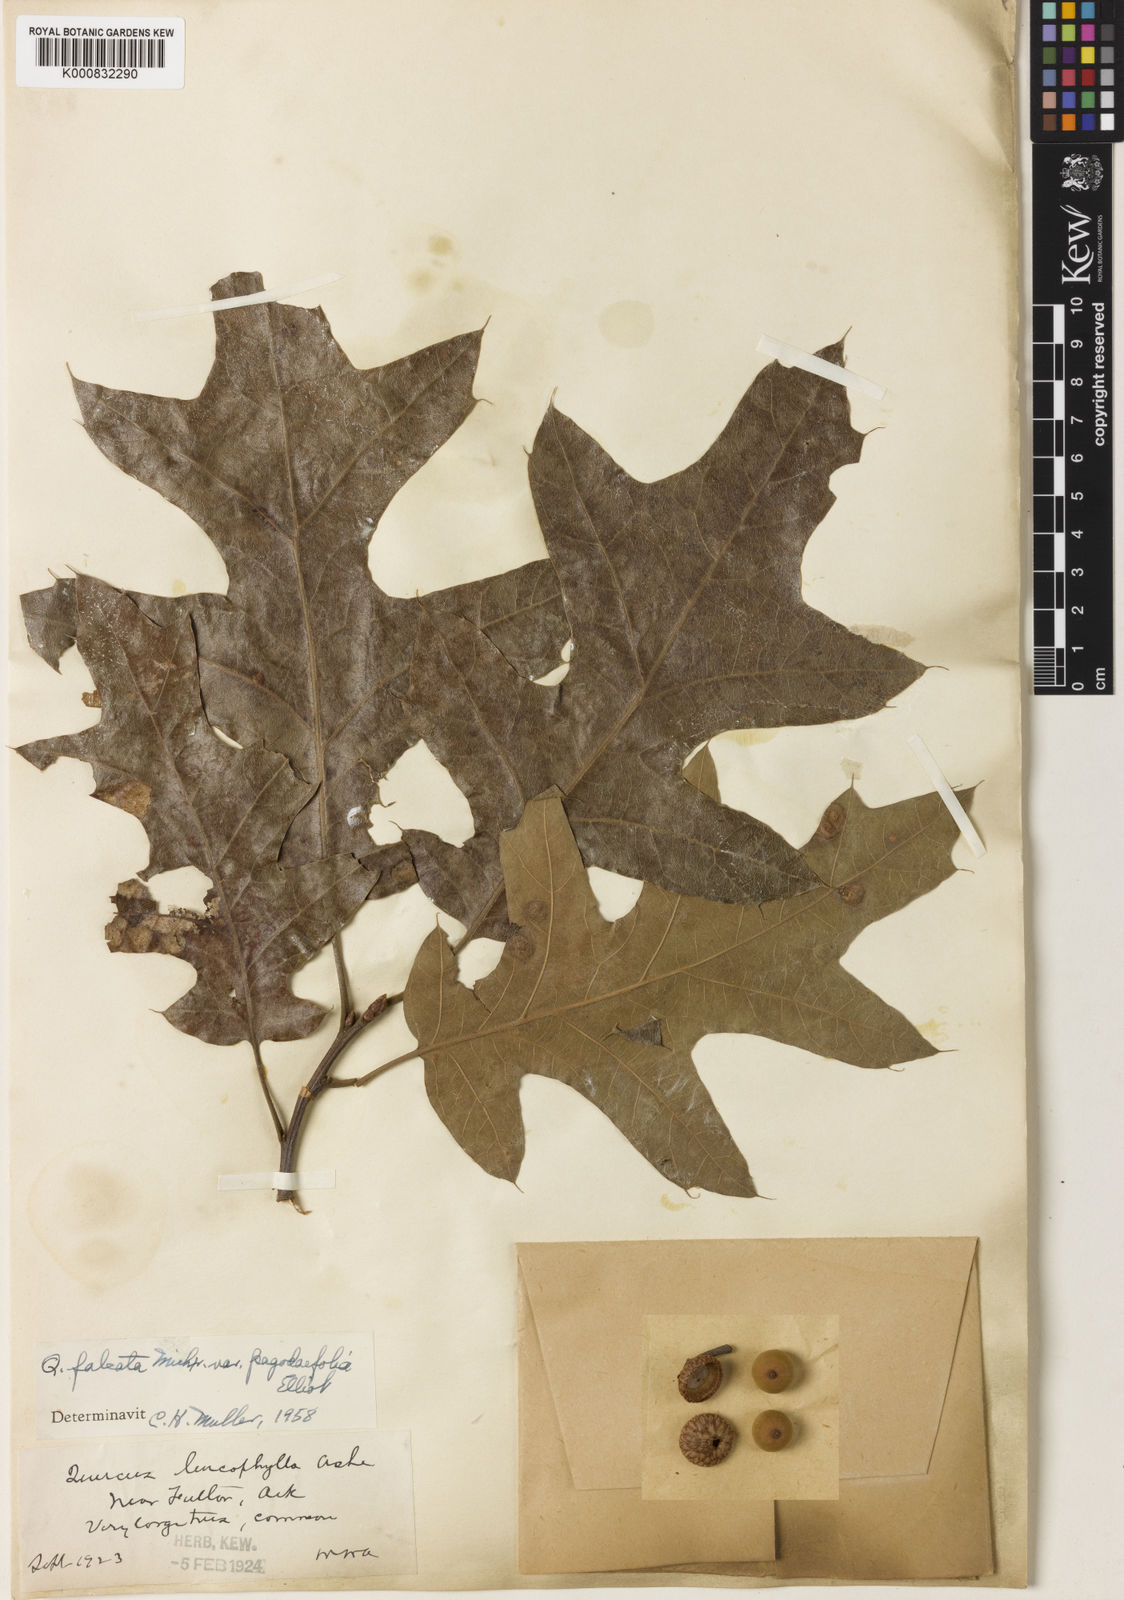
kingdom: Plantae
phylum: Tracheophyta
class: Magnoliopsida
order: Fagales
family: Fagaceae
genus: Quercus
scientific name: Quercus pagoda
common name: Cherrybark oak
